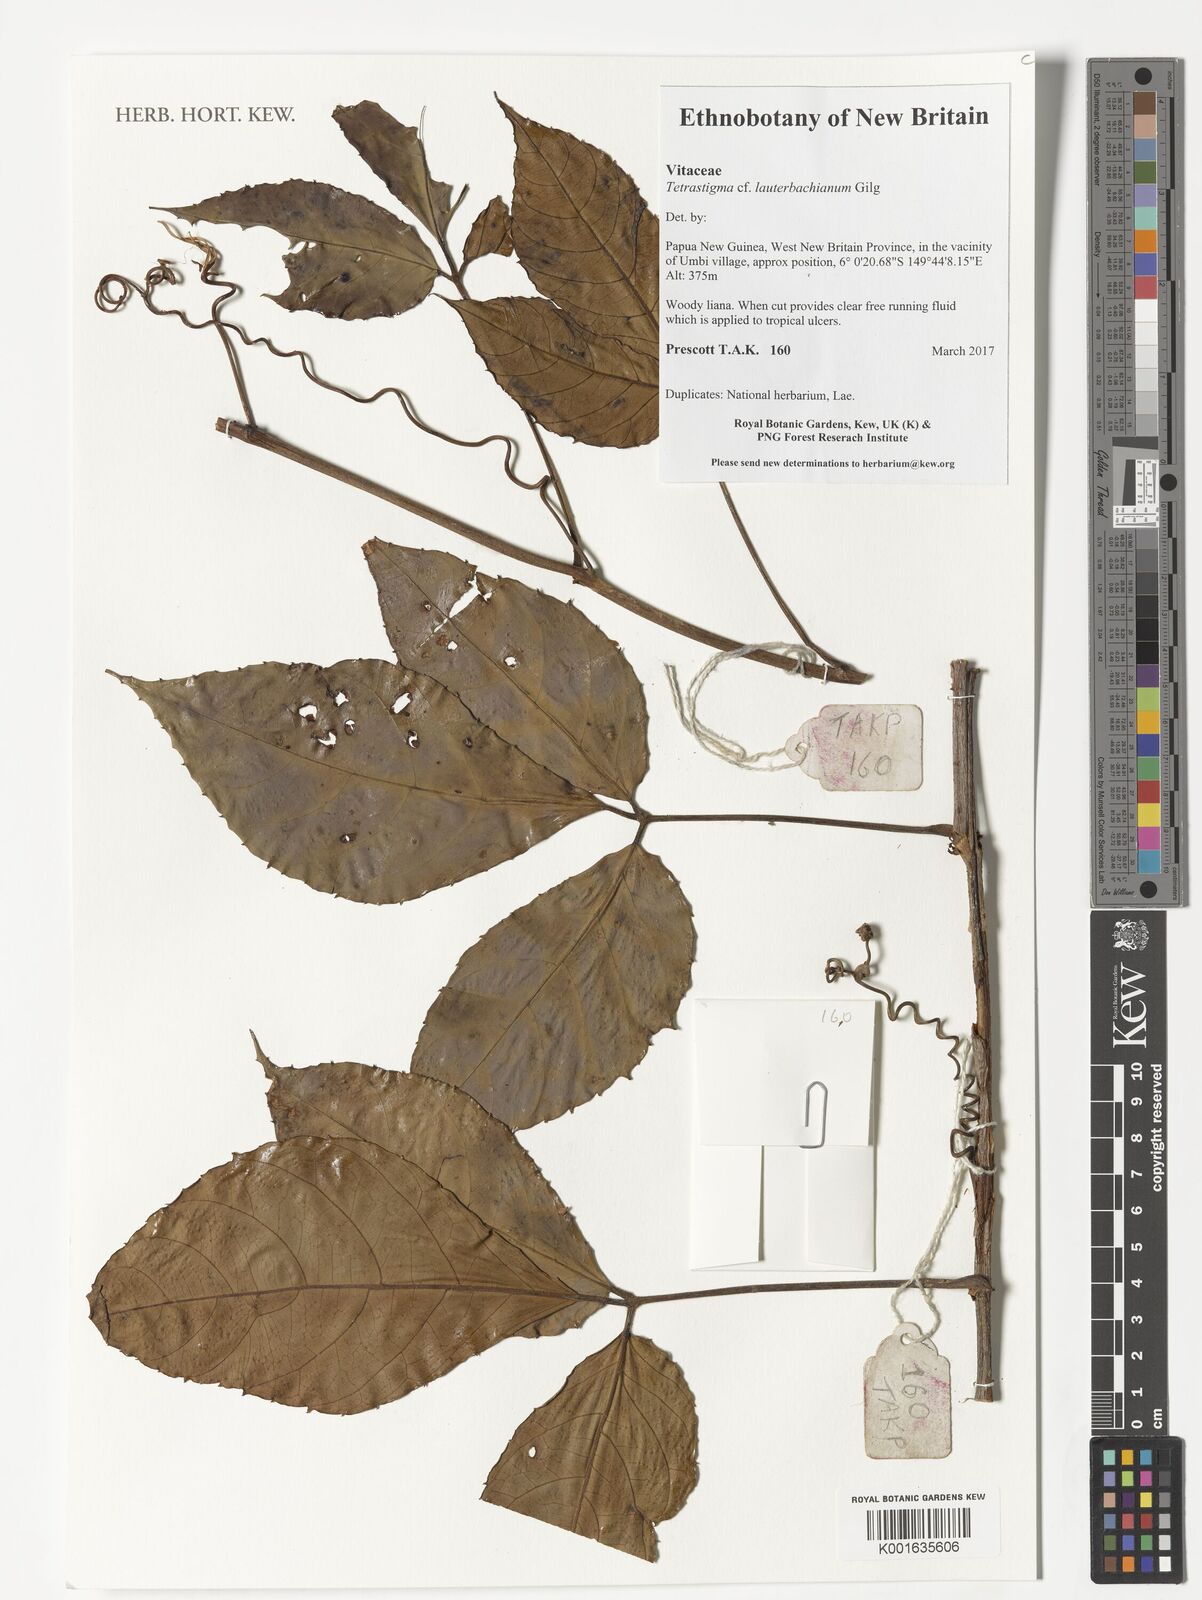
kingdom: Plantae
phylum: Tracheophyta
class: Magnoliopsida
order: Vitales
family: Vitaceae
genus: Tetrastigma
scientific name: Tetrastigma lauterbachianum
